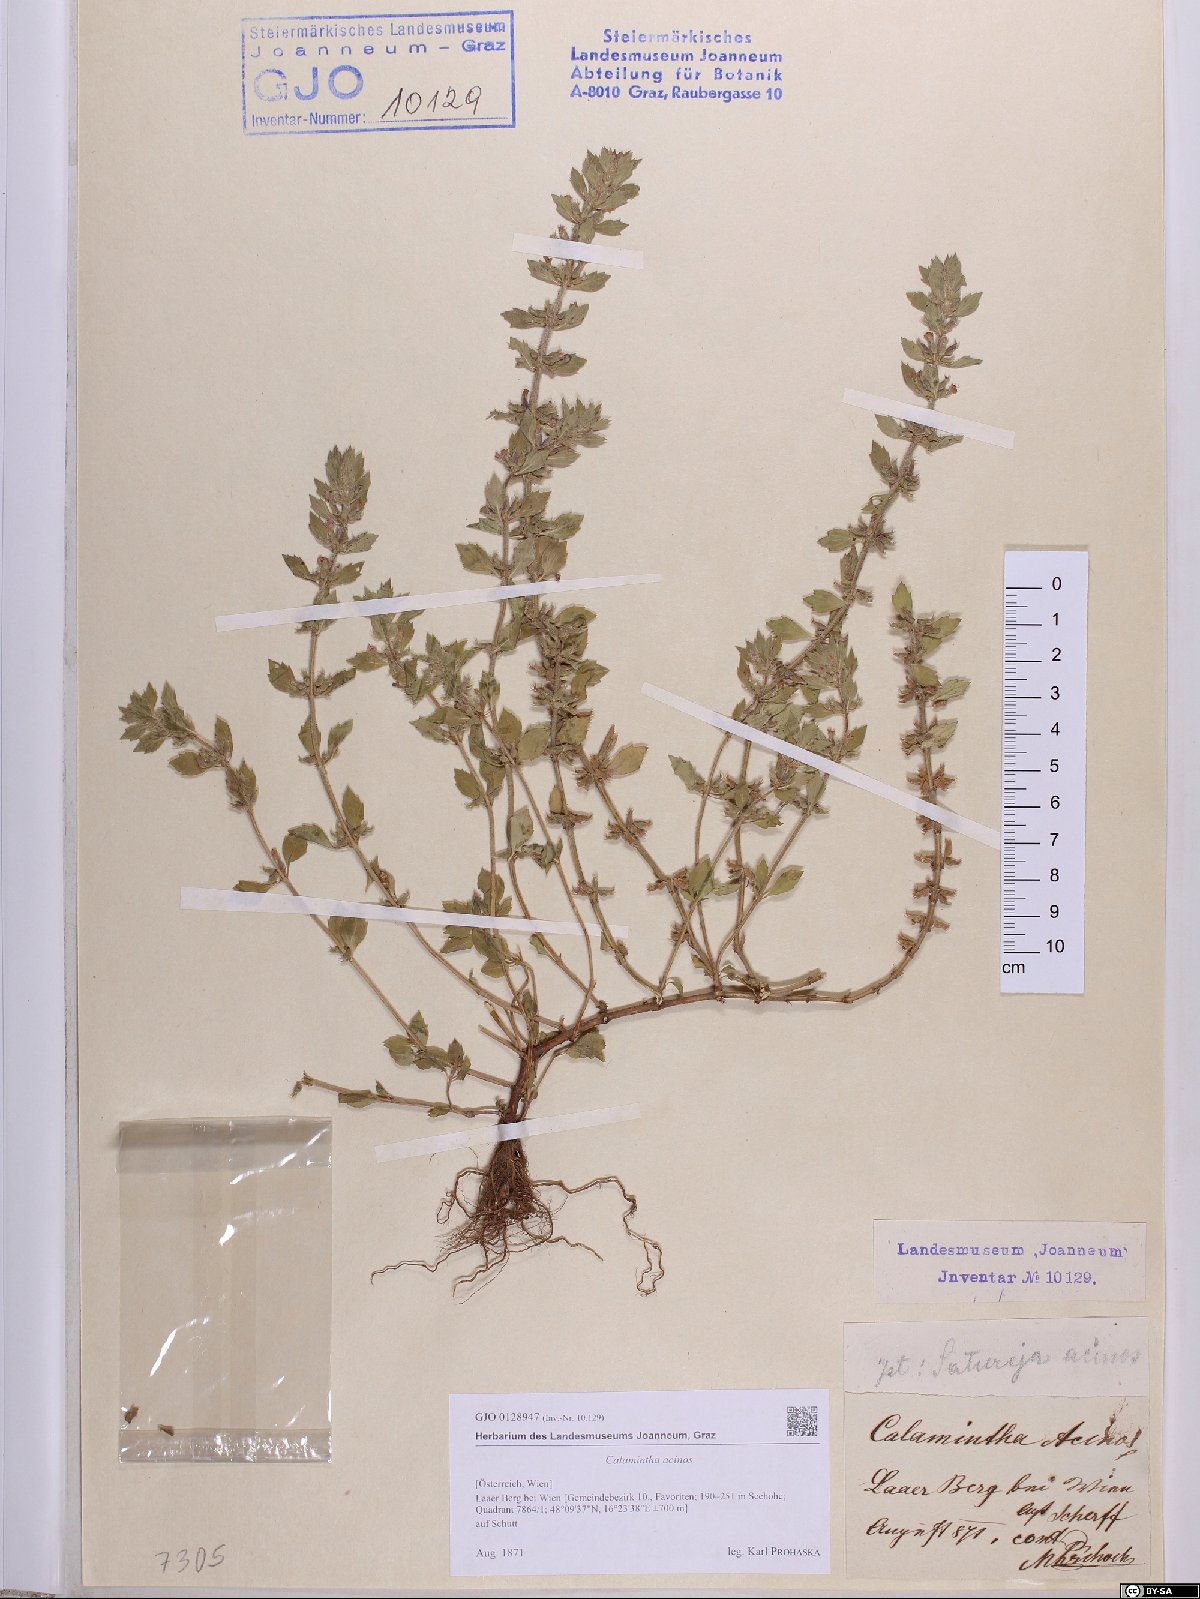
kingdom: Plantae
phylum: Tracheophyta
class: Magnoliopsida
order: Lamiales
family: Lamiaceae
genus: Clinopodium
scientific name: Clinopodium acinos
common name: Basil thyme
